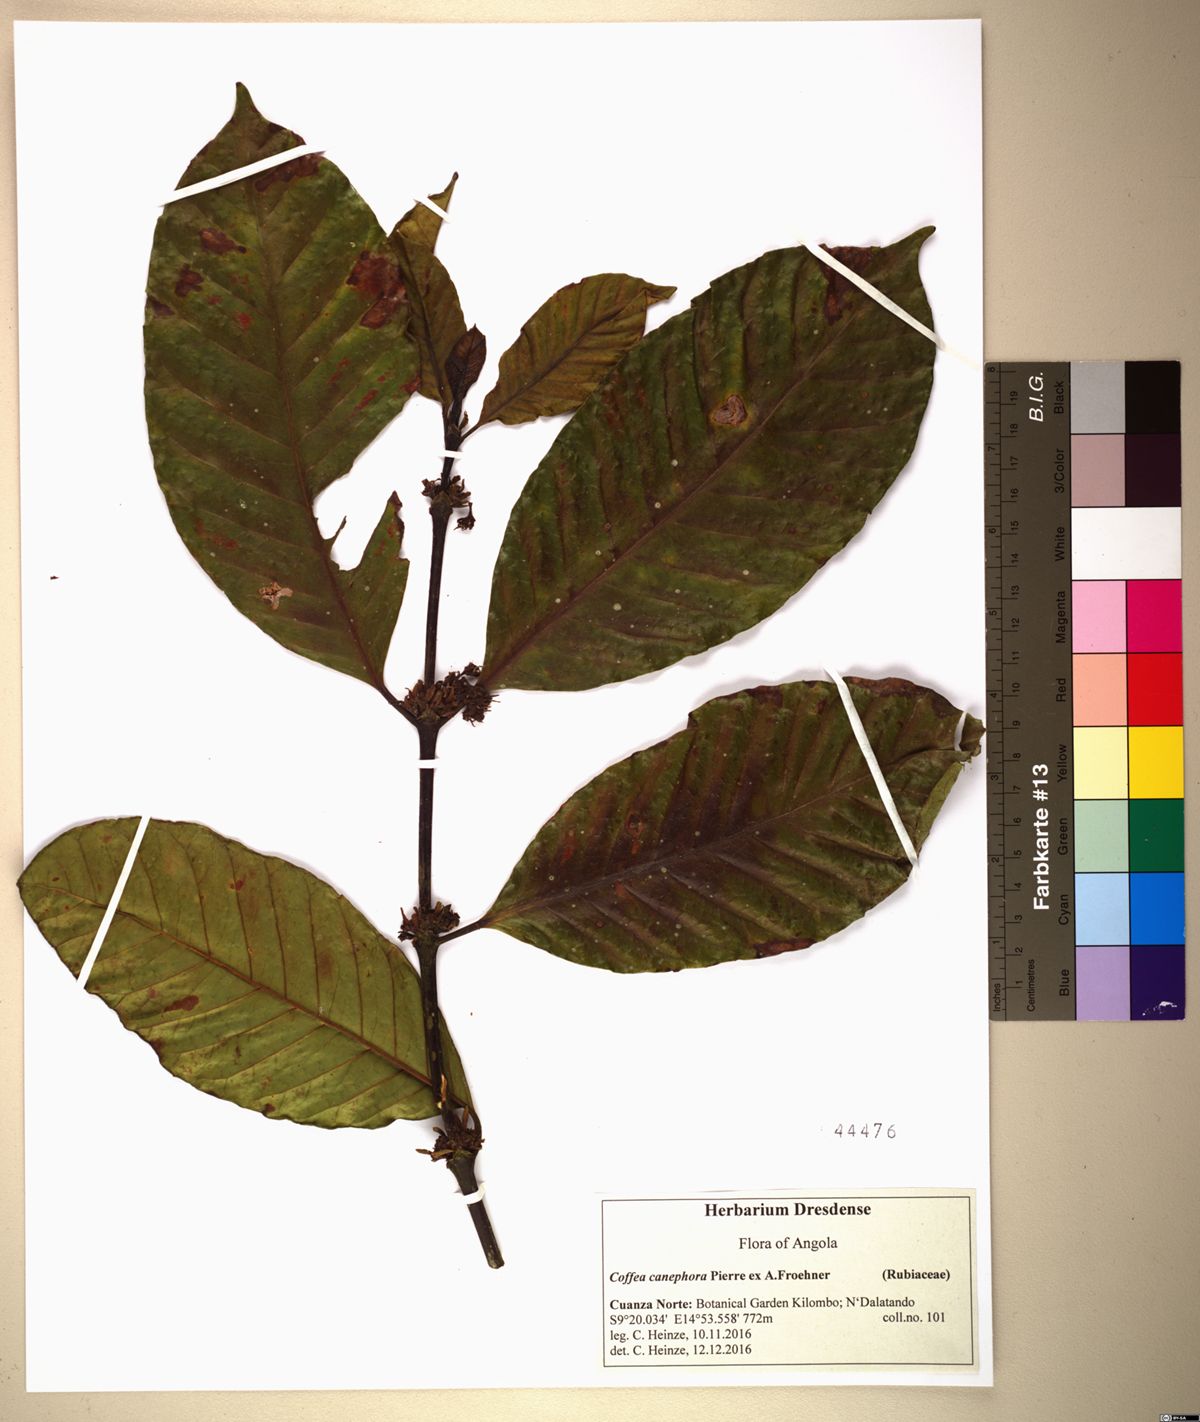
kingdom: Plantae
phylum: Tracheophyta
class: Magnoliopsida
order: Gentianales
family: Rubiaceae
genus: Coffea
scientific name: Coffea canephora
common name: Robusta coffee
